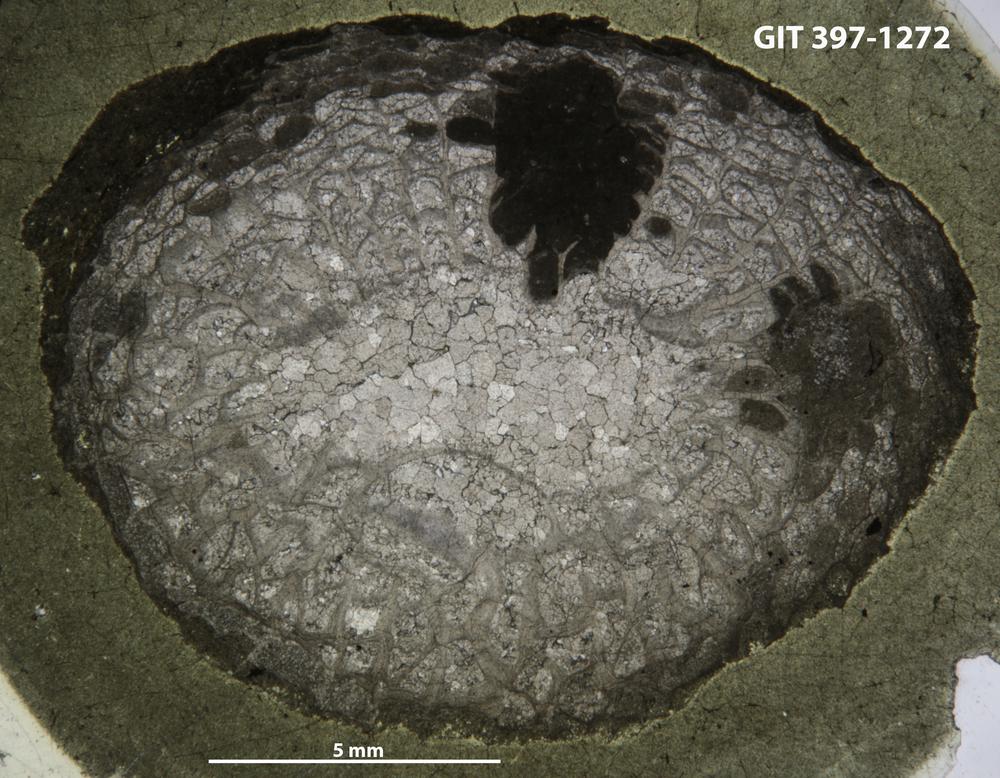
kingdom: Animalia
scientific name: Animalia
